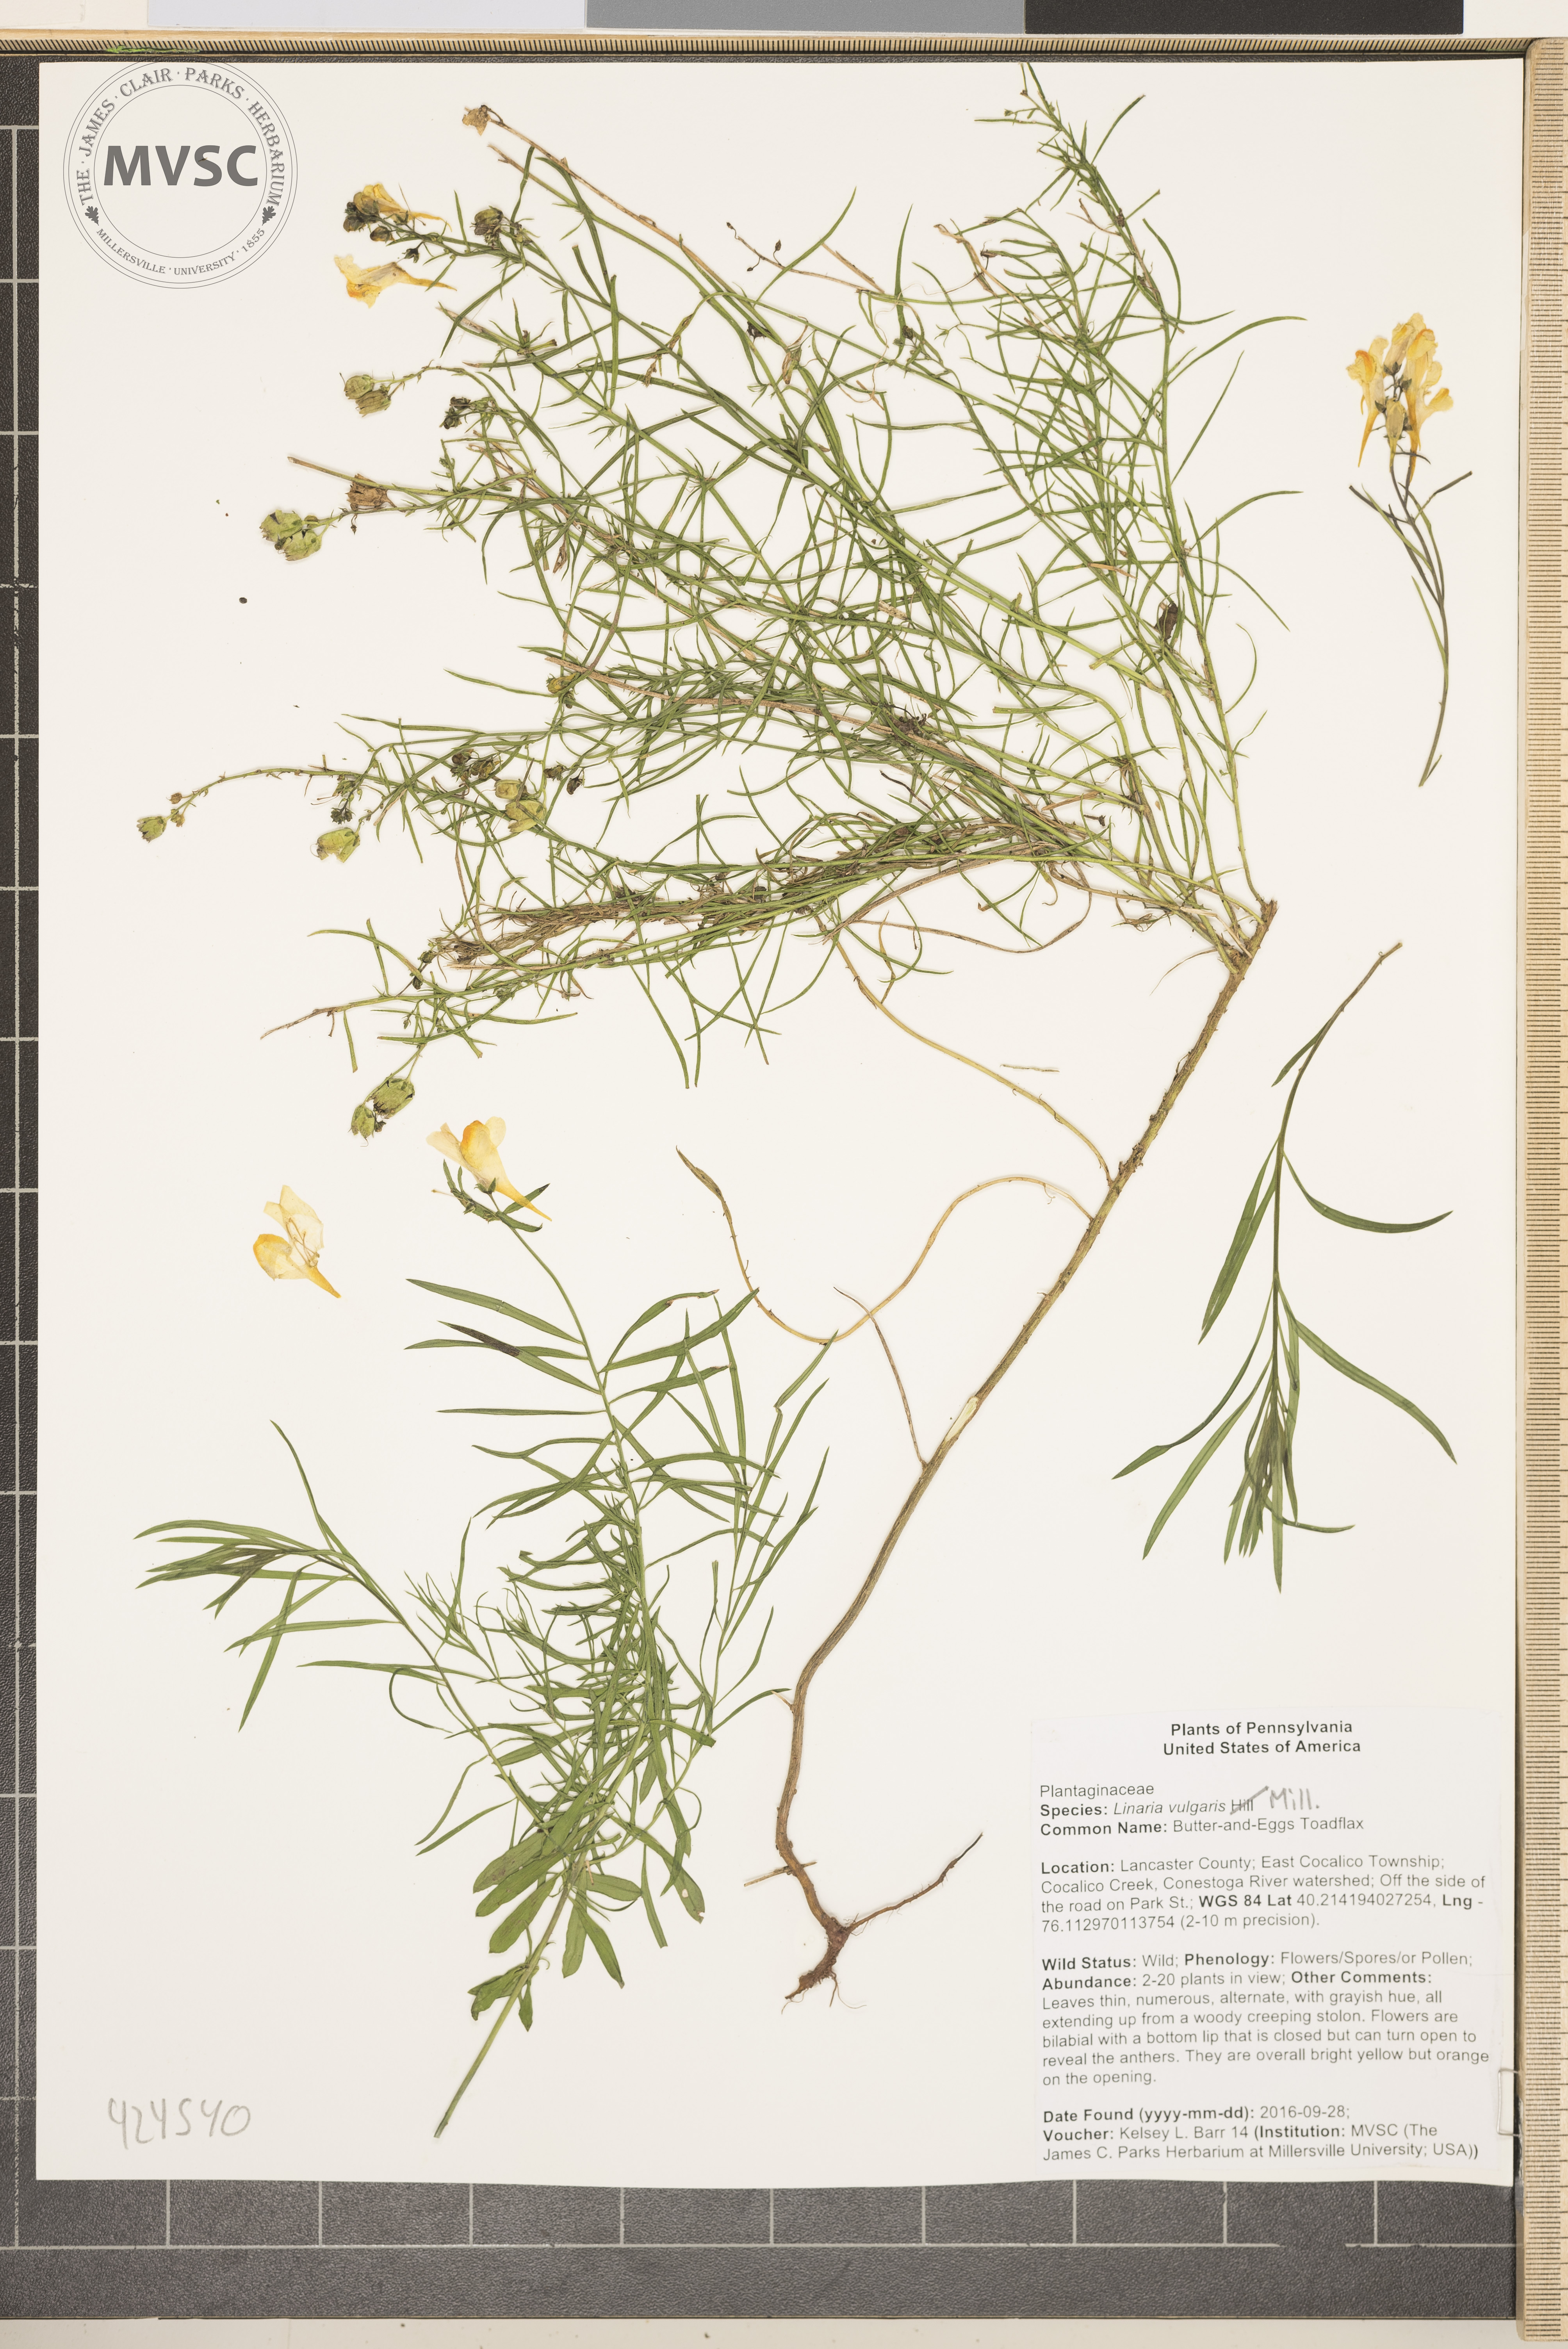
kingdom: Plantae
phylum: Tracheophyta
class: Magnoliopsida
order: Lamiales
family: Plantaginaceae
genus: Linaria
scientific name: Linaria vulgaris
